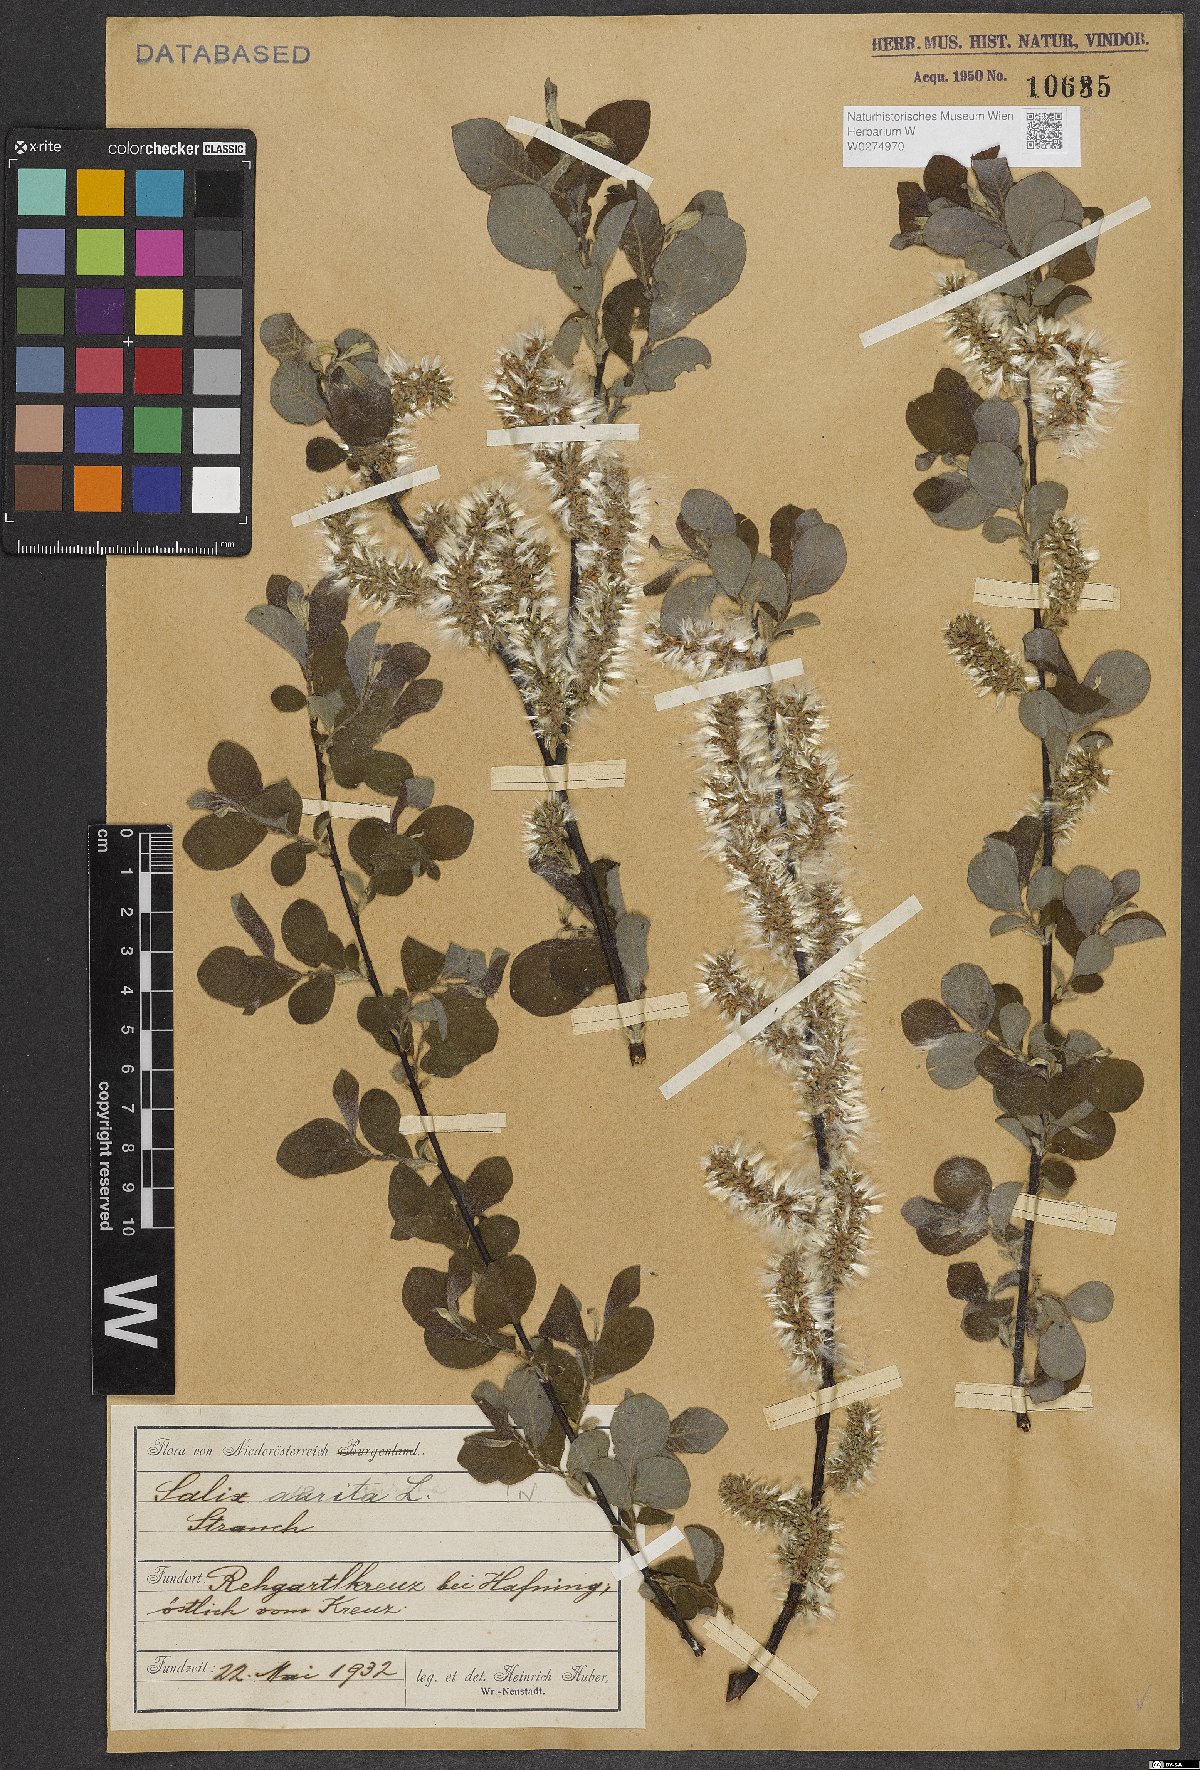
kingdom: Plantae
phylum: Tracheophyta
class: Magnoliopsida
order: Malpighiales
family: Salicaceae
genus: Salix
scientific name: Salix aurita
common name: Eared willow
